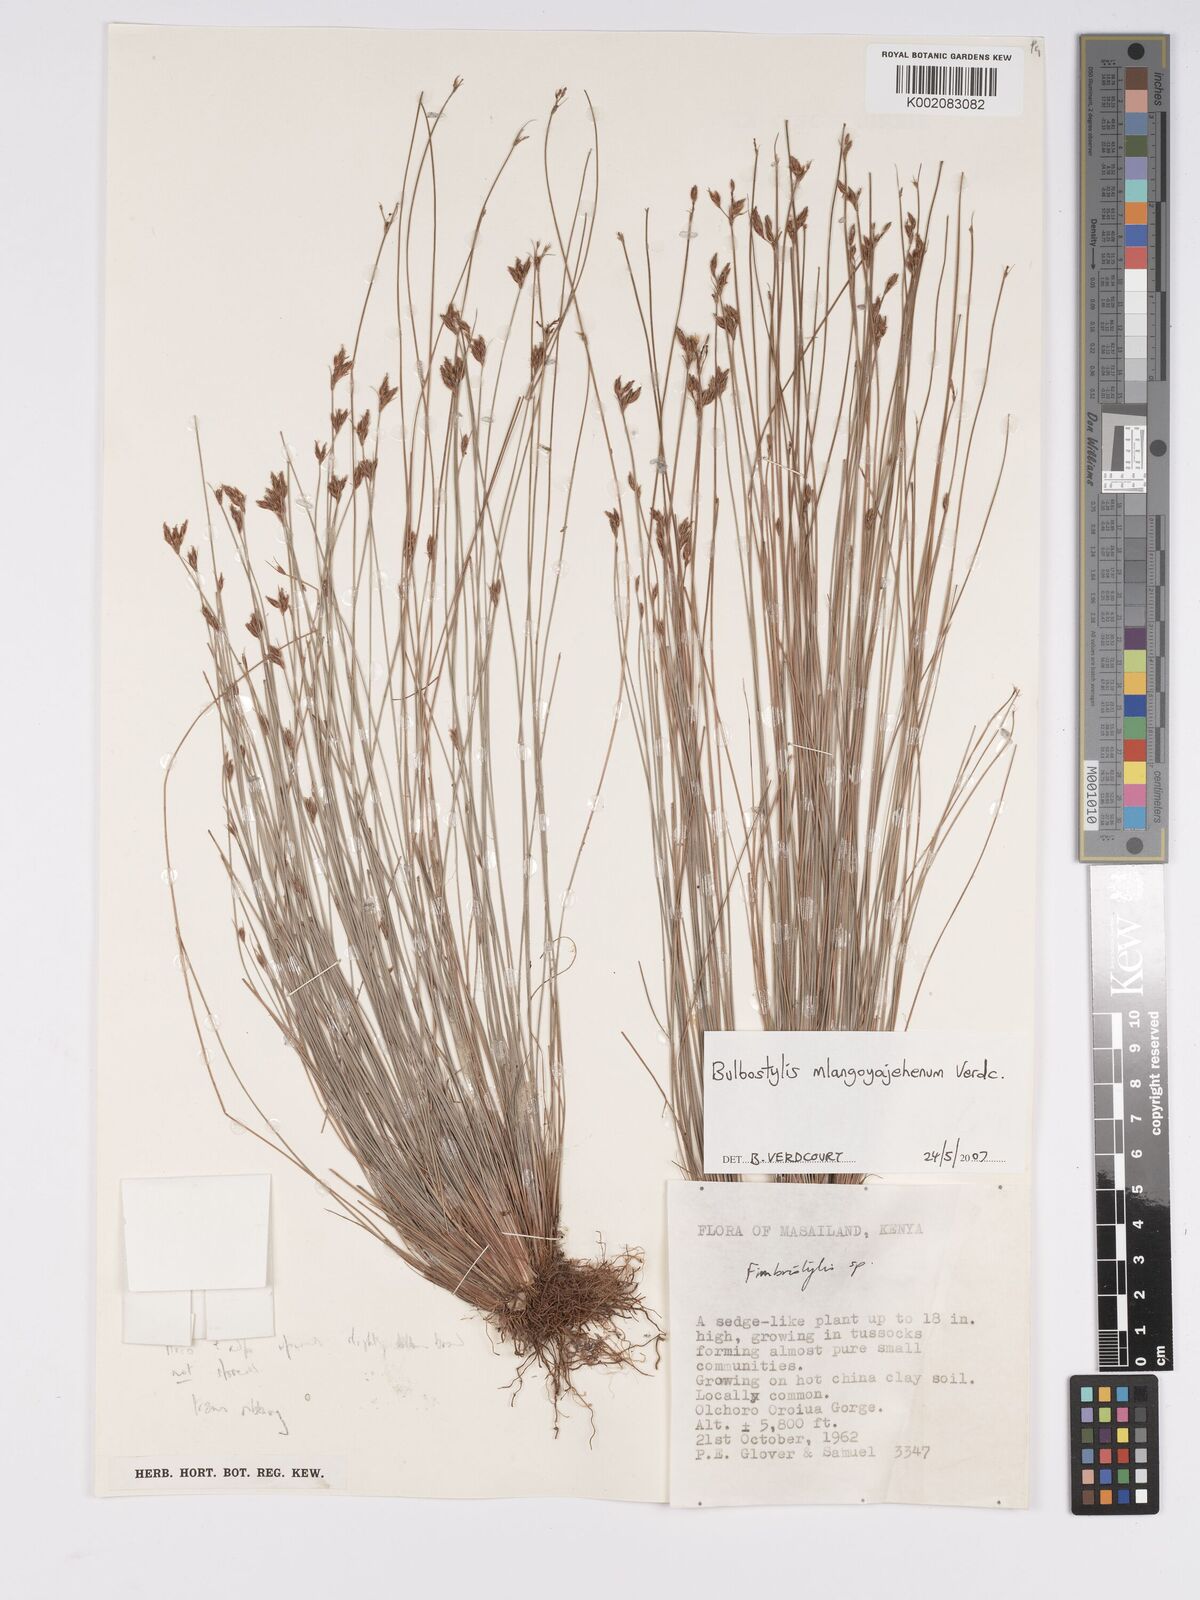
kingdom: Plantae
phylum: Tracheophyta
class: Liliopsida
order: Poales
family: Cyperaceae
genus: Bulbostylis
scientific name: Bulbostylis mlangoyajehenum
